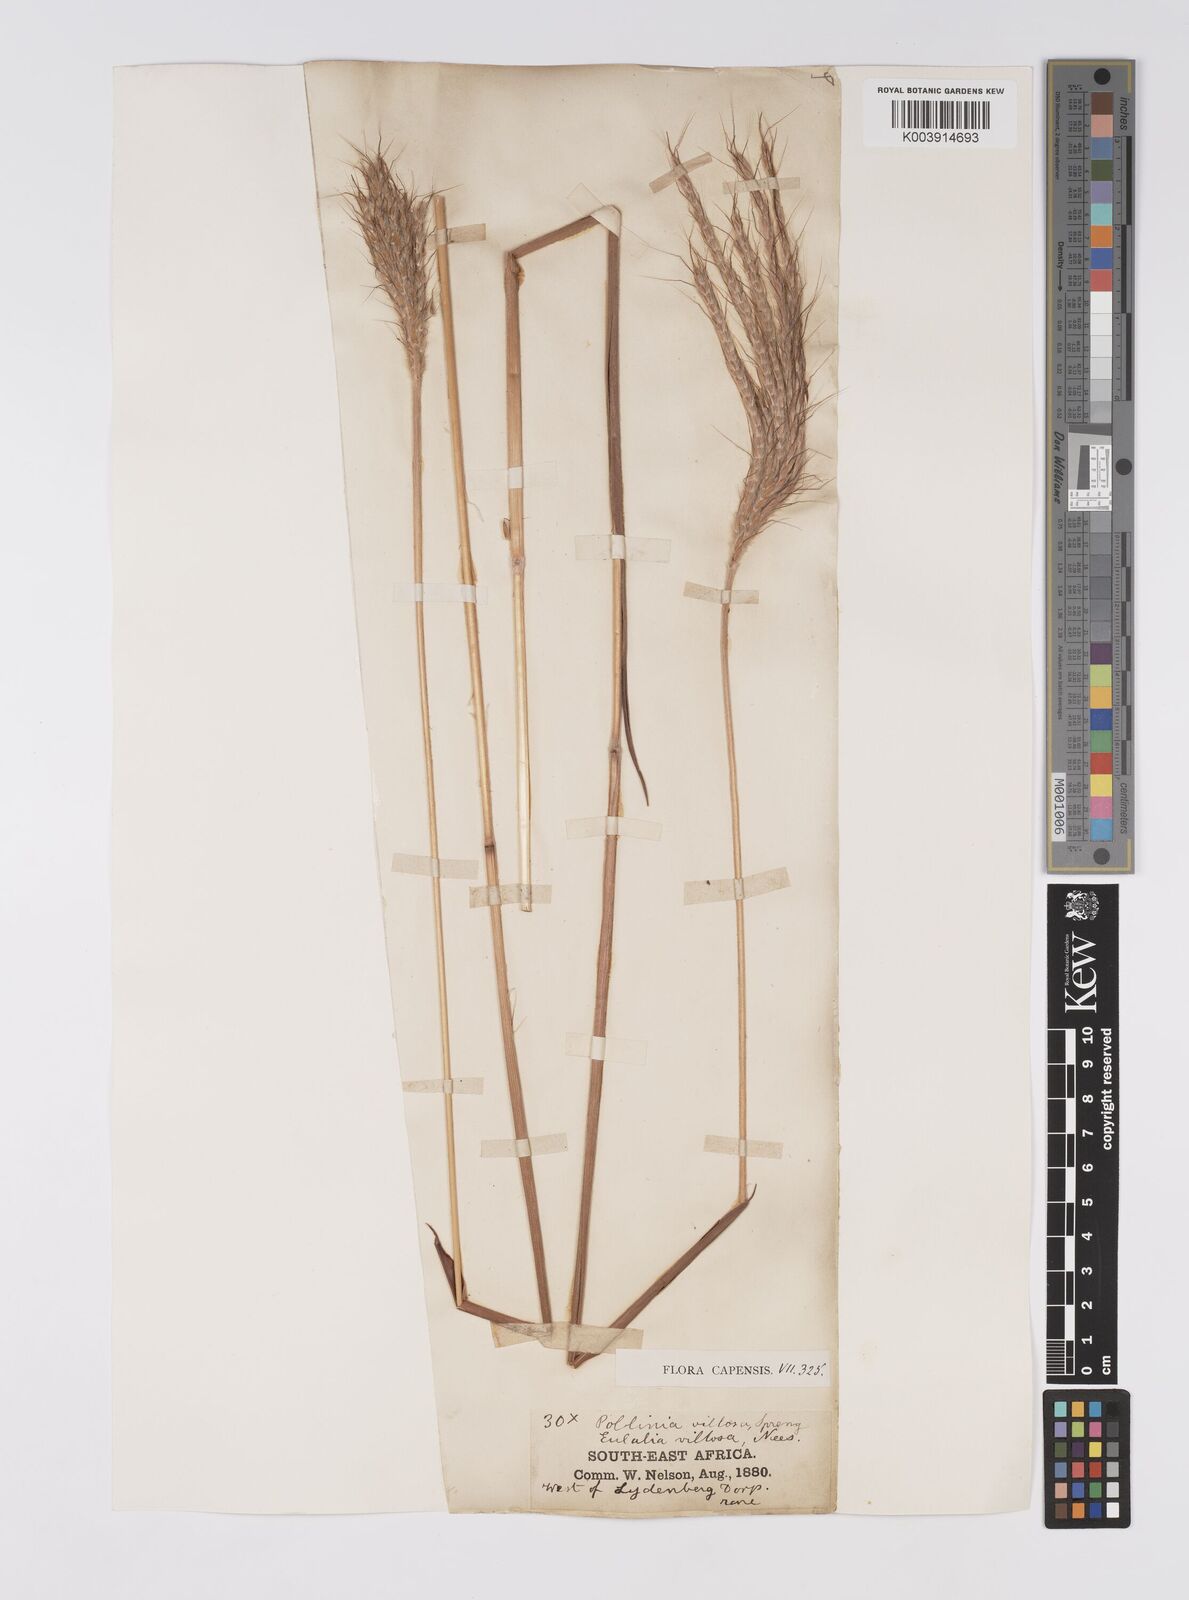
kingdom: Plantae
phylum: Tracheophyta
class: Liliopsida
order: Poales
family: Poaceae
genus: Eulalia
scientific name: Eulalia villosa
